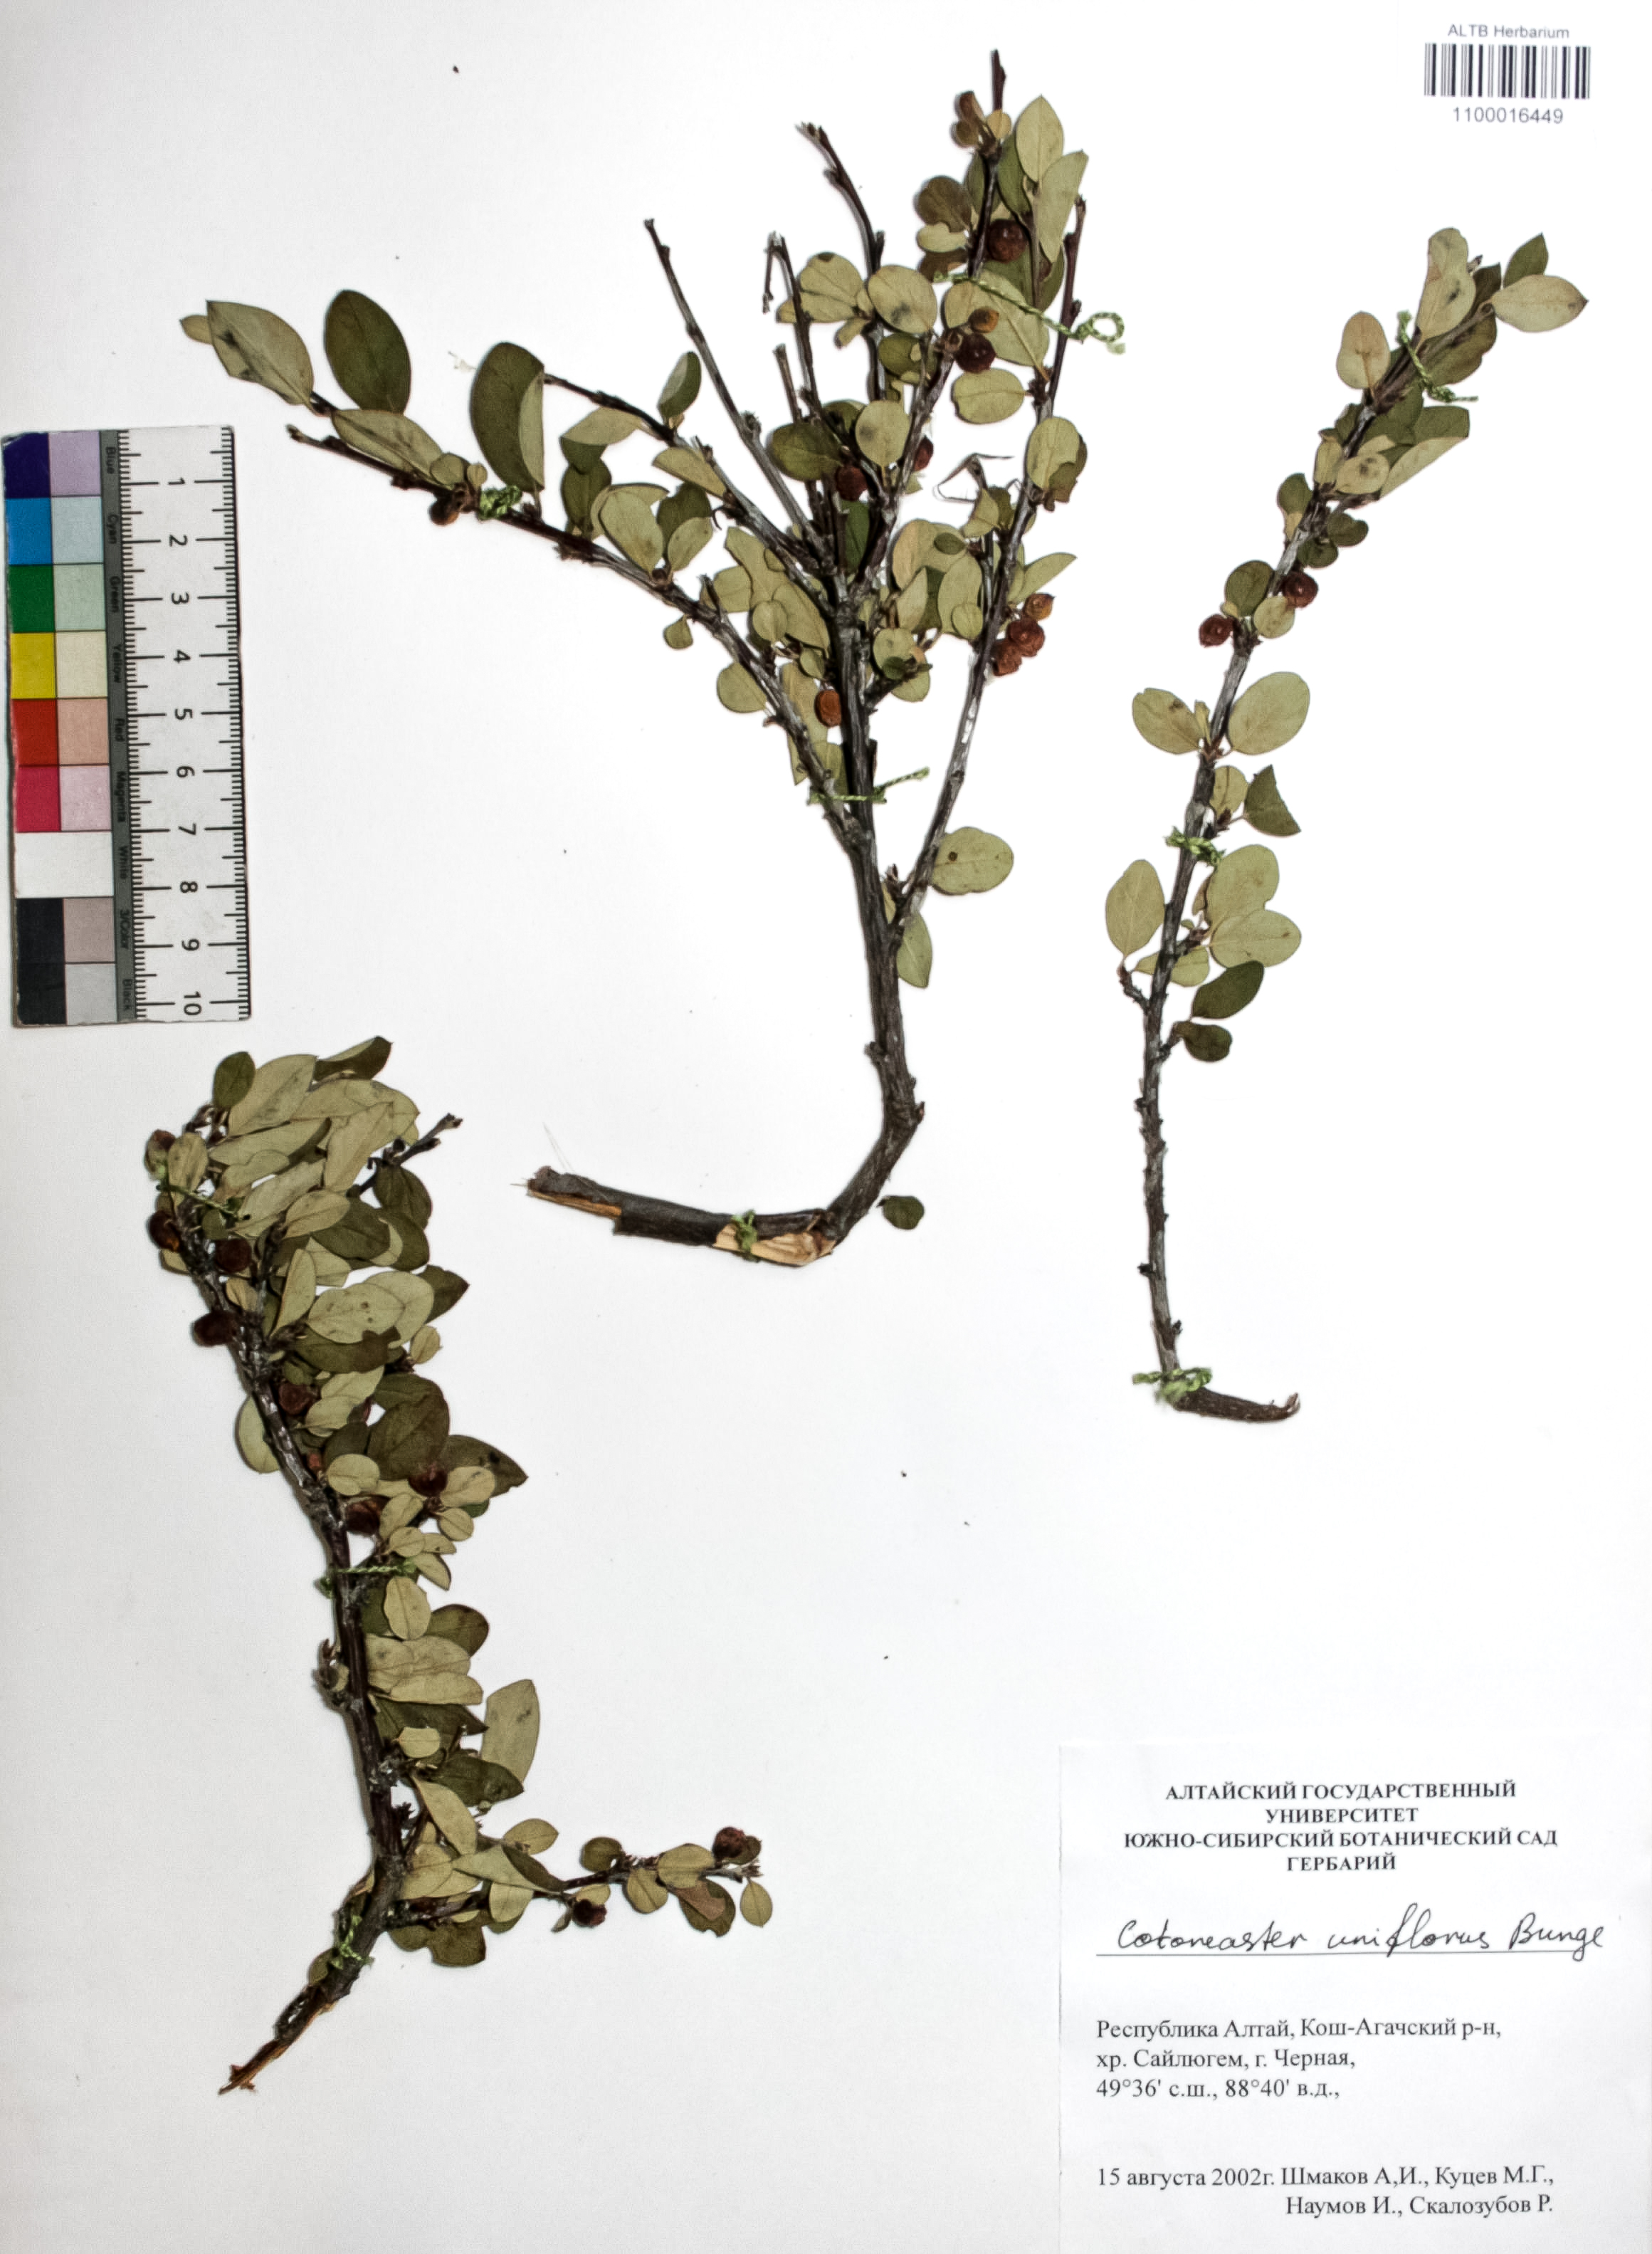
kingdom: Plantae
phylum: Tracheophyta
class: Magnoliopsida
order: Rosales
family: Rosaceae
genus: Cotoneaster
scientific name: Cotoneaster uniflorus
